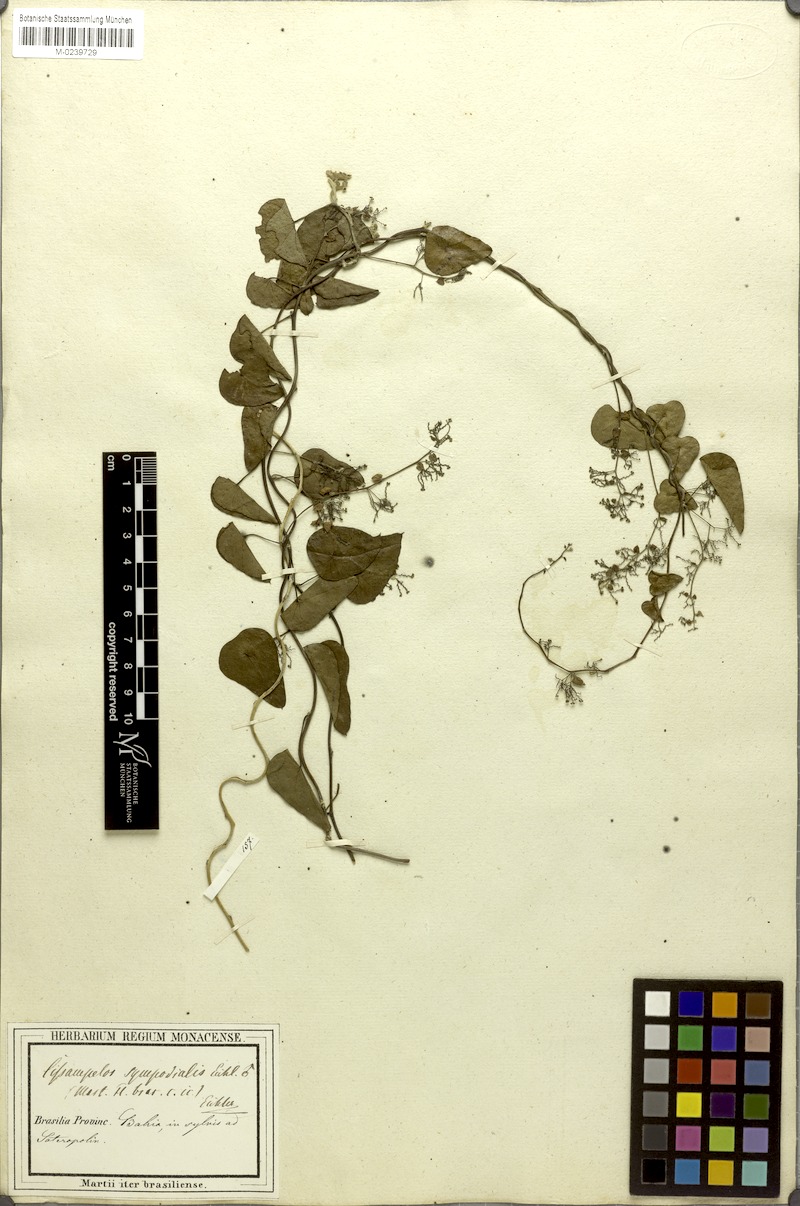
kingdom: Plantae
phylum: Tracheophyta
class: Magnoliopsida
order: Ranunculales
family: Menispermaceae
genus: Cissampelos
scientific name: Cissampelos sympodialis
